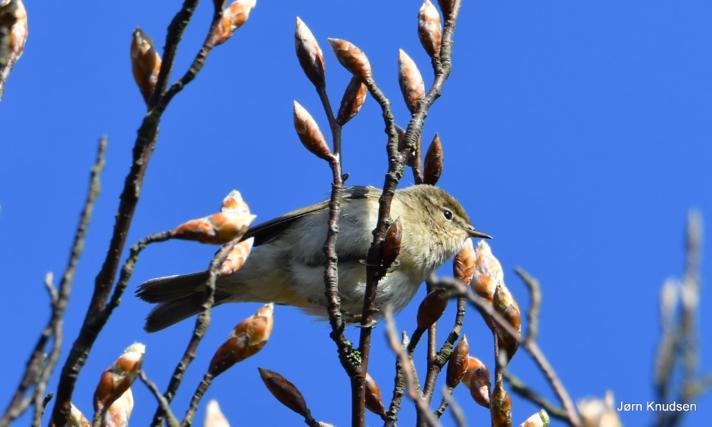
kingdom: Animalia
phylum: Chordata
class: Aves
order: Passeriformes
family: Phylloscopidae
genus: Phylloscopus
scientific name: Phylloscopus collybita
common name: Gransanger
